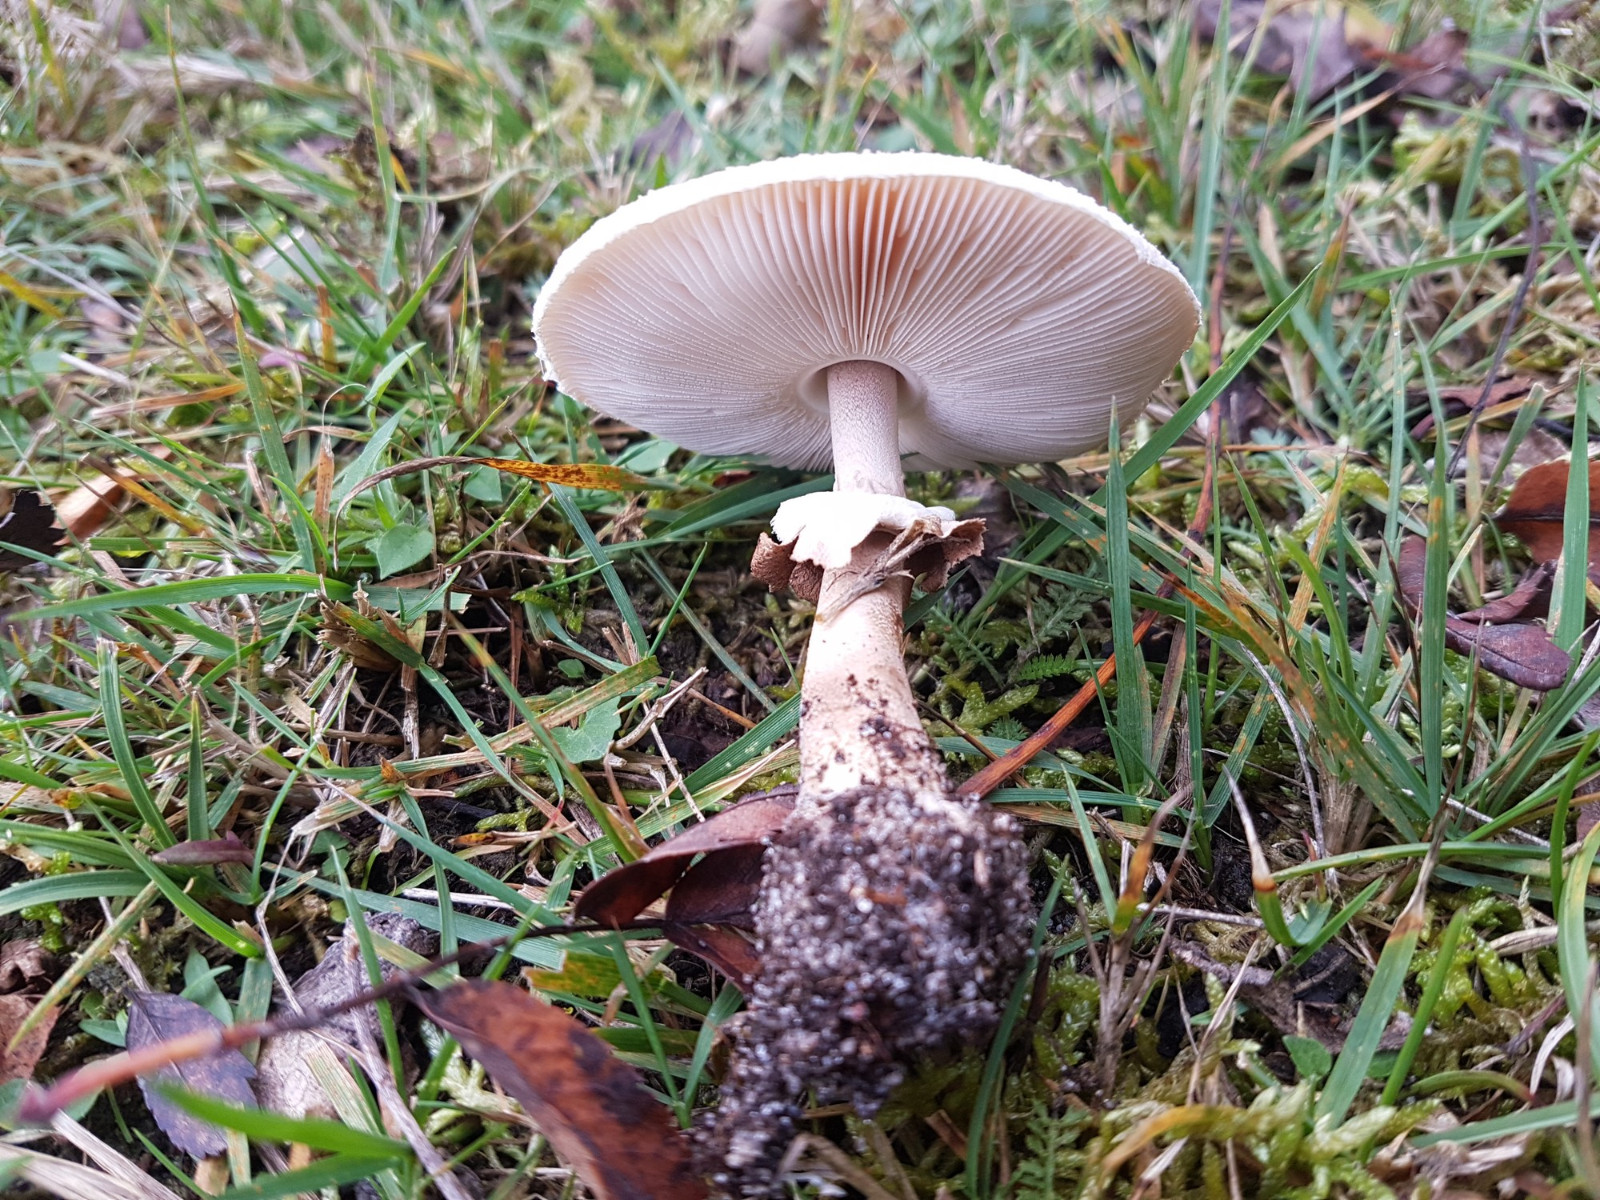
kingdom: Fungi
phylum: Basidiomycota
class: Agaricomycetes
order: Agaricales
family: Agaricaceae
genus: Macrolepiota
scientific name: Macrolepiota mastoidea
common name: puklet kæmpeparasolhat
